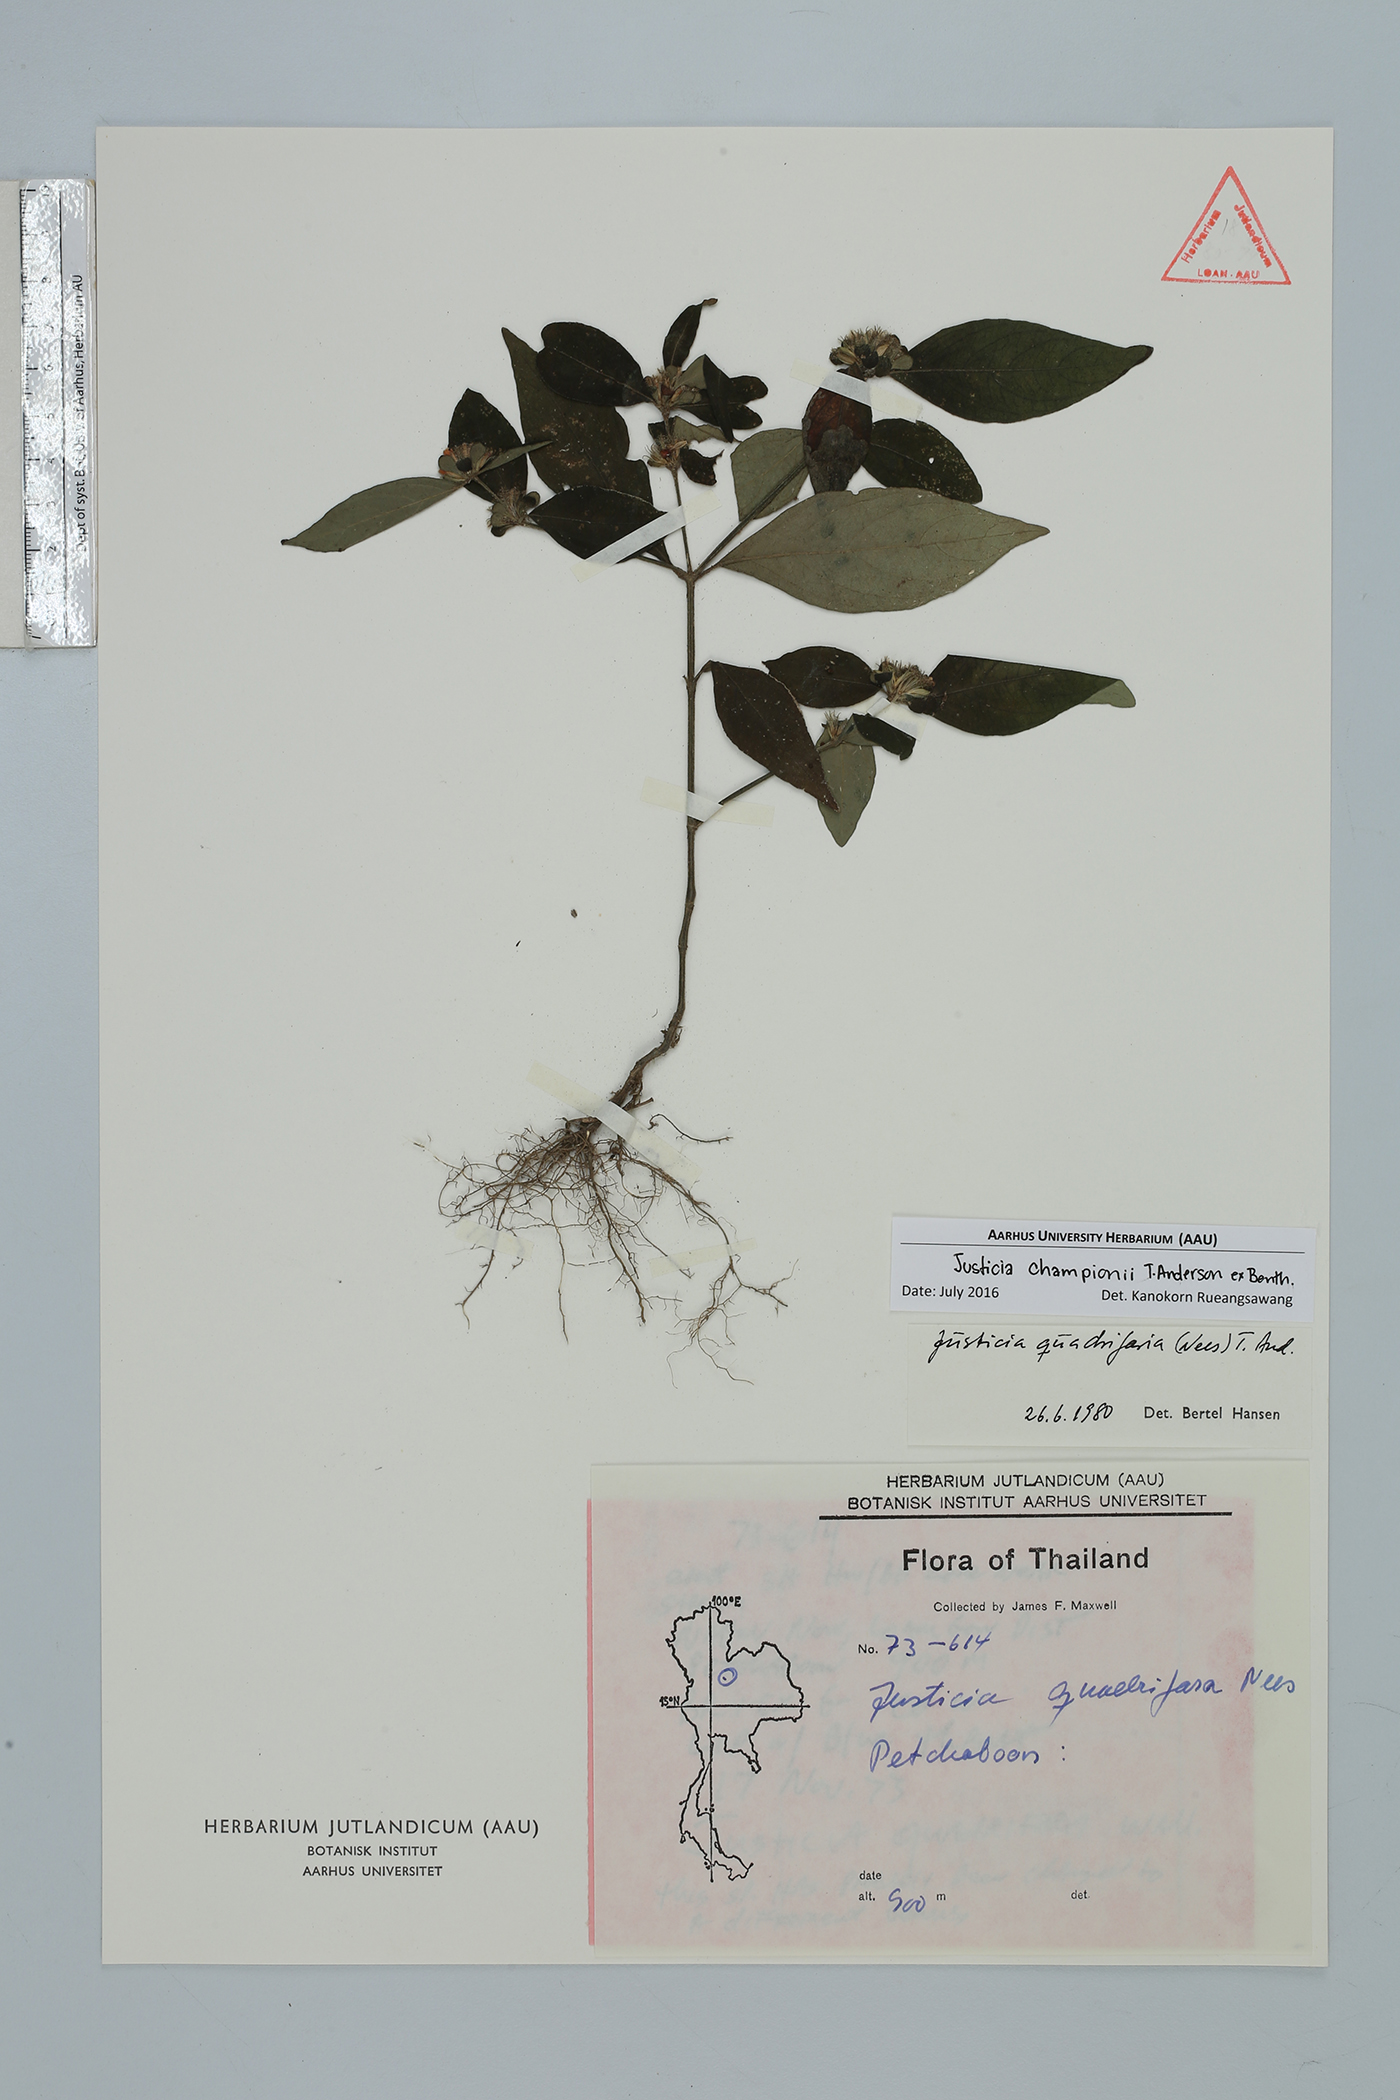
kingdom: Plantae
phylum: Tracheophyta
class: Magnoliopsida
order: Lamiales
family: Acanthaceae
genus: Justicia
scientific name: Justicia championii
